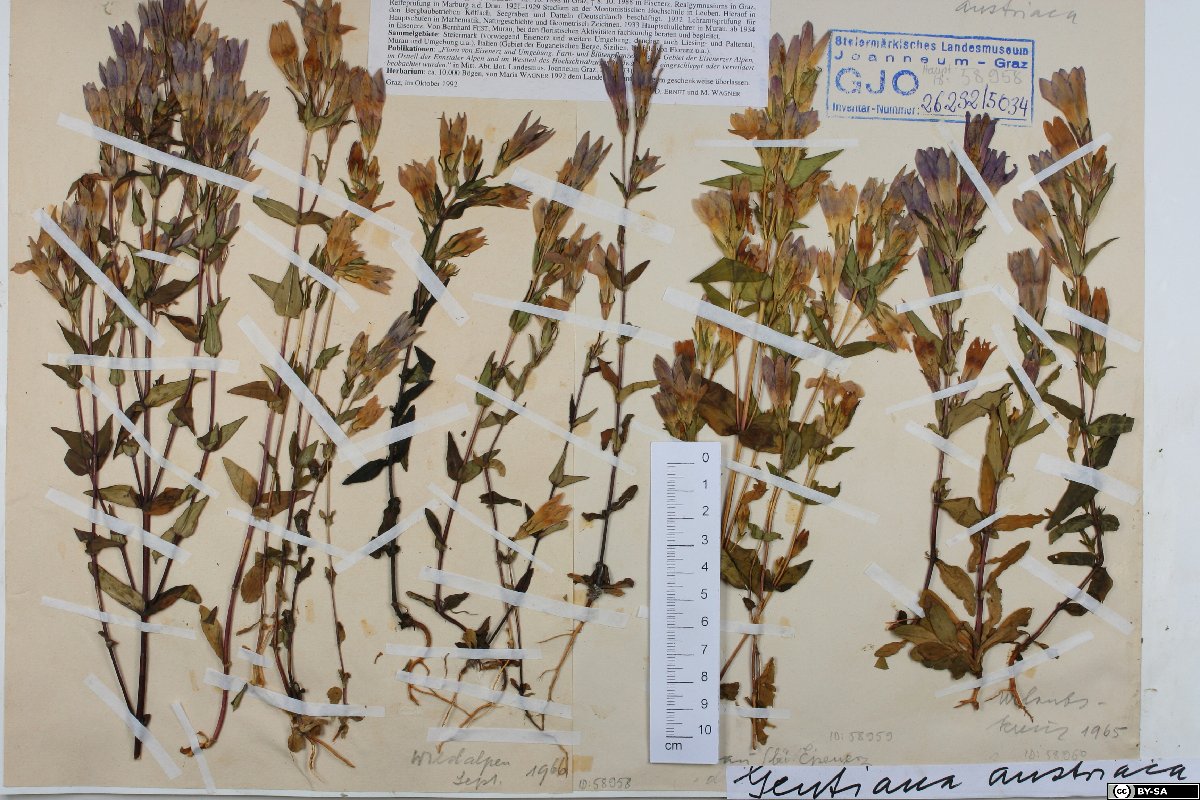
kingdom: Plantae
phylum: Tracheophyta
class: Magnoliopsida
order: Gentianales
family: Gentianaceae
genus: Gentianella
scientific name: Gentianella austriaca
